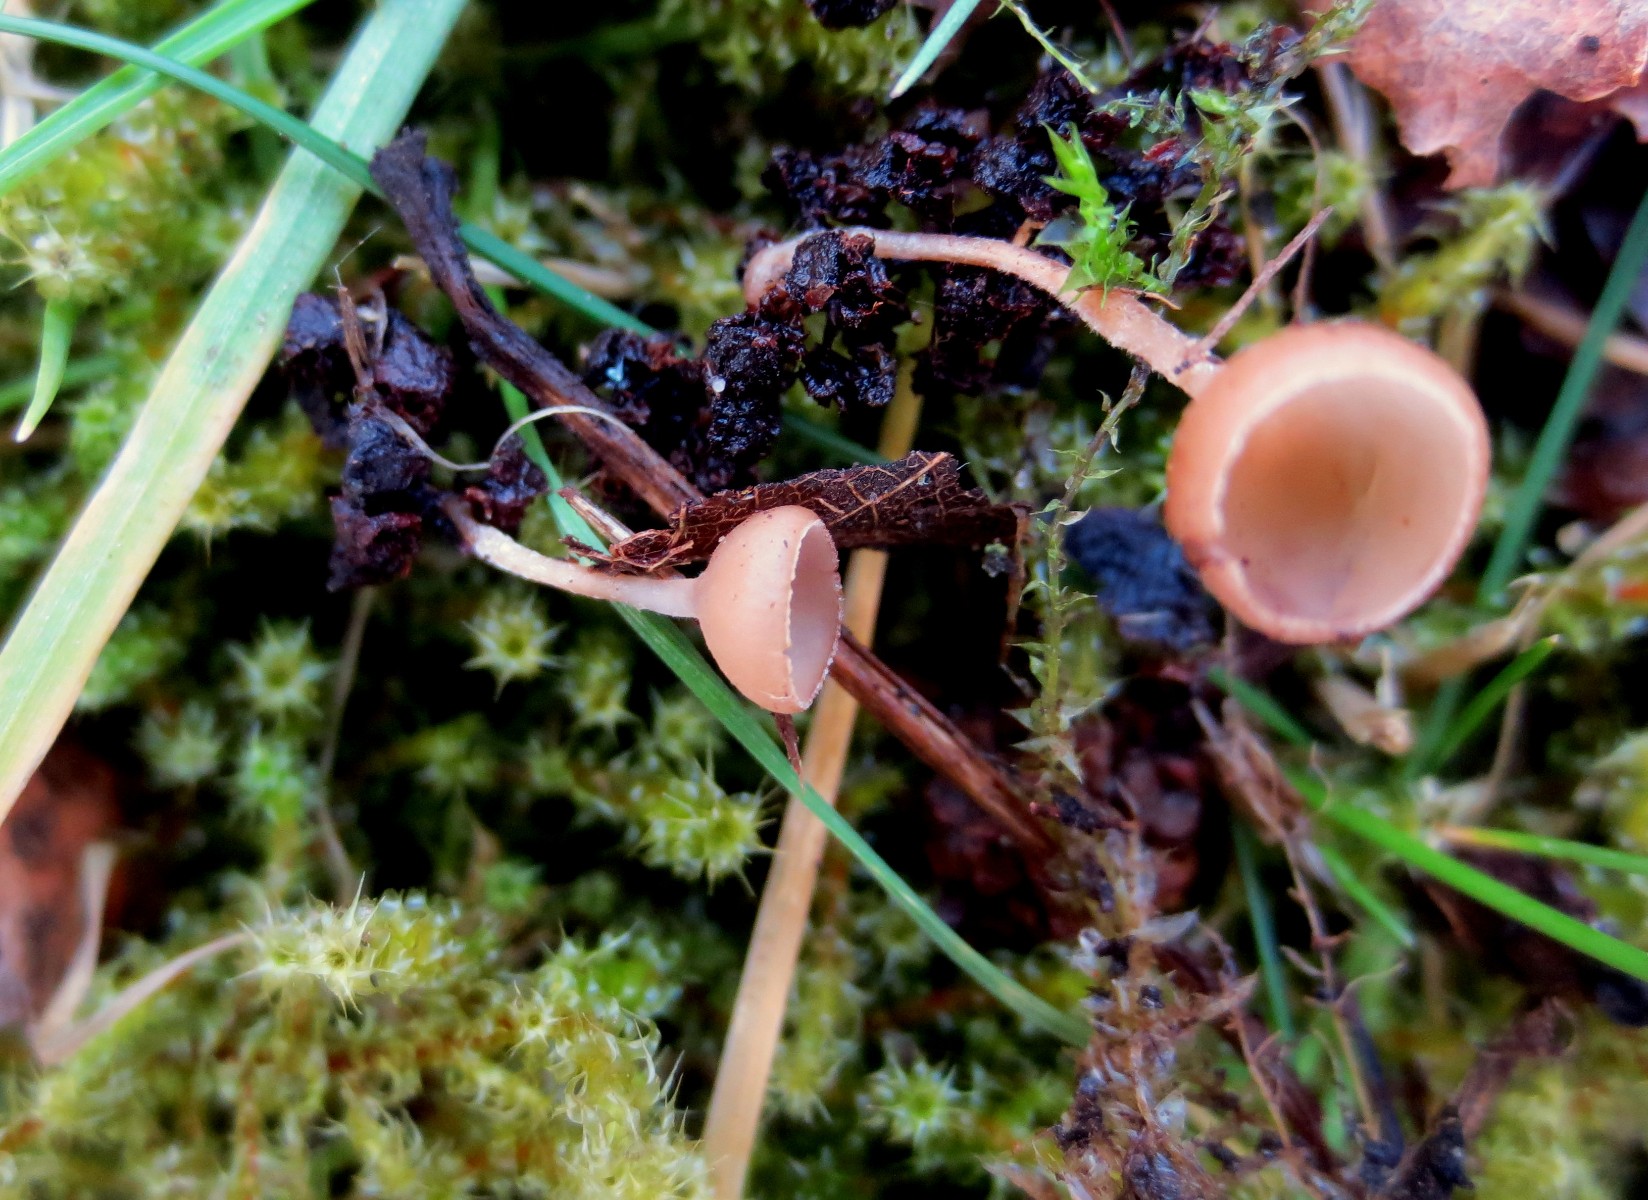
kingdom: Fungi
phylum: Ascomycota
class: Leotiomycetes
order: Helotiales
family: Sclerotiniaceae
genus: Ciboria
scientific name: Ciboria amentacea
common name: ellerakle-knoldskive
